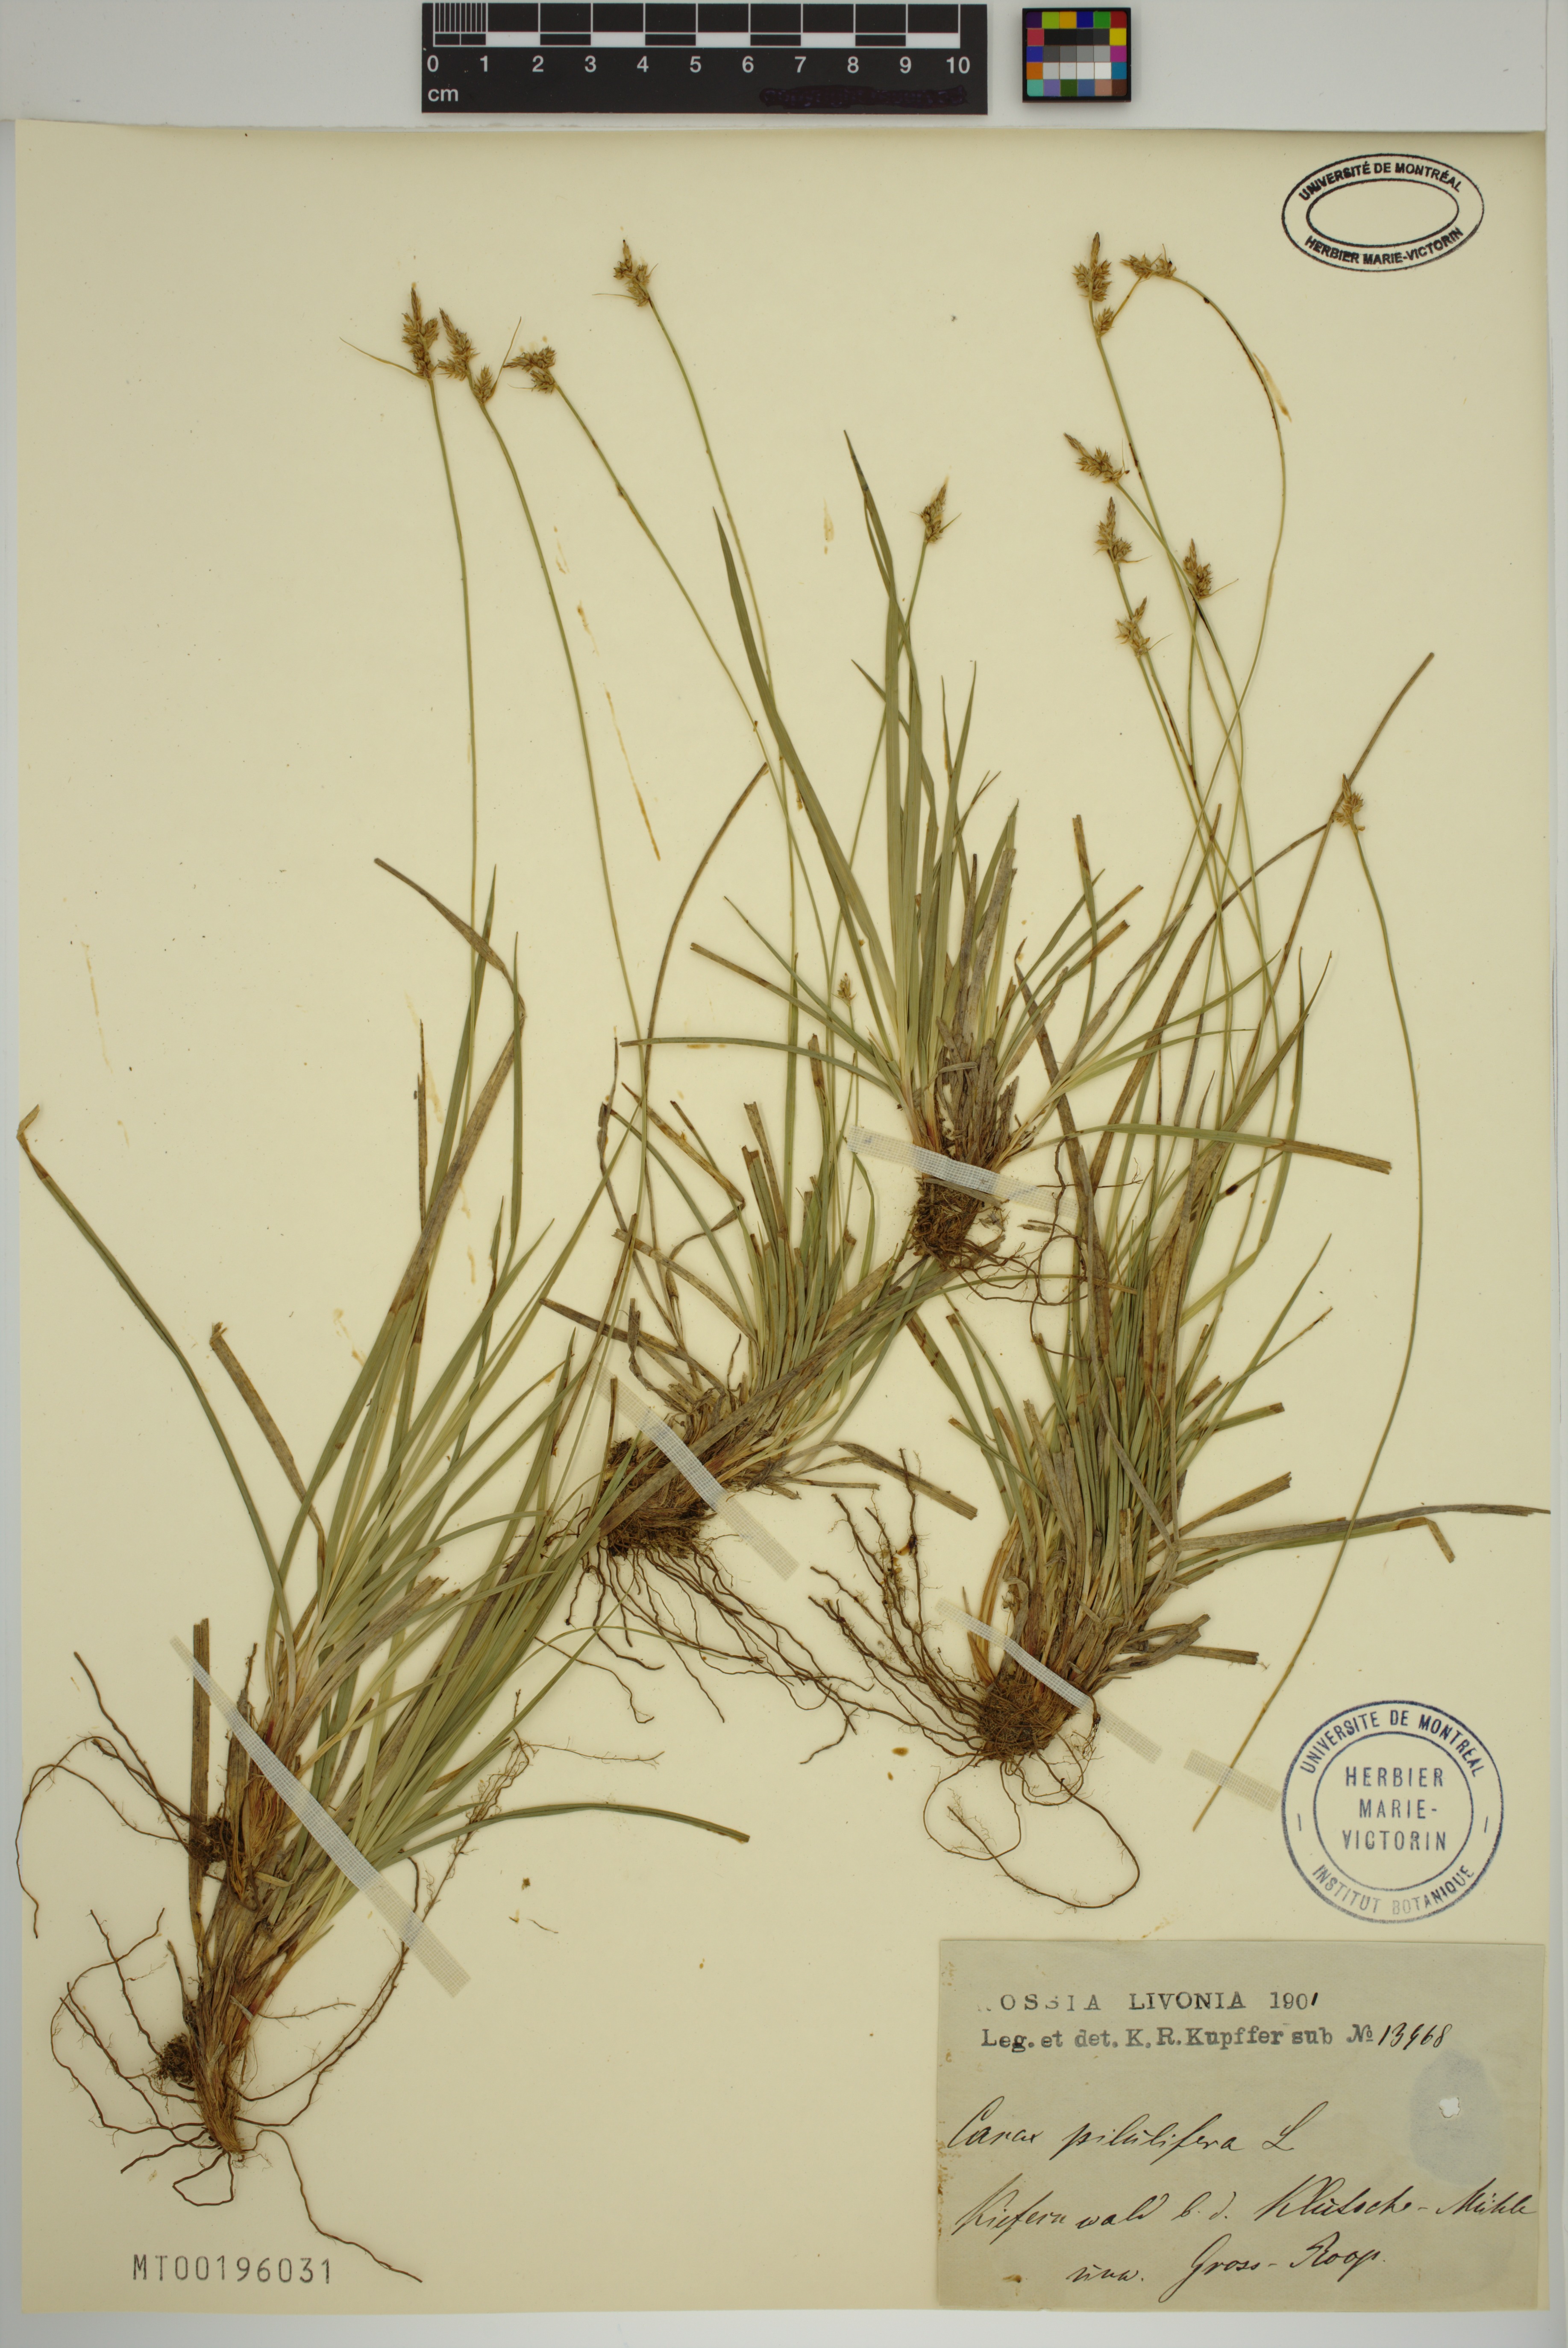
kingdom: Plantae
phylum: Tracheophyta
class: Liliopsida
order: Poales
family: Cyperaceae
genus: Carex
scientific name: Carex pilulifera
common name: Pill sedge
